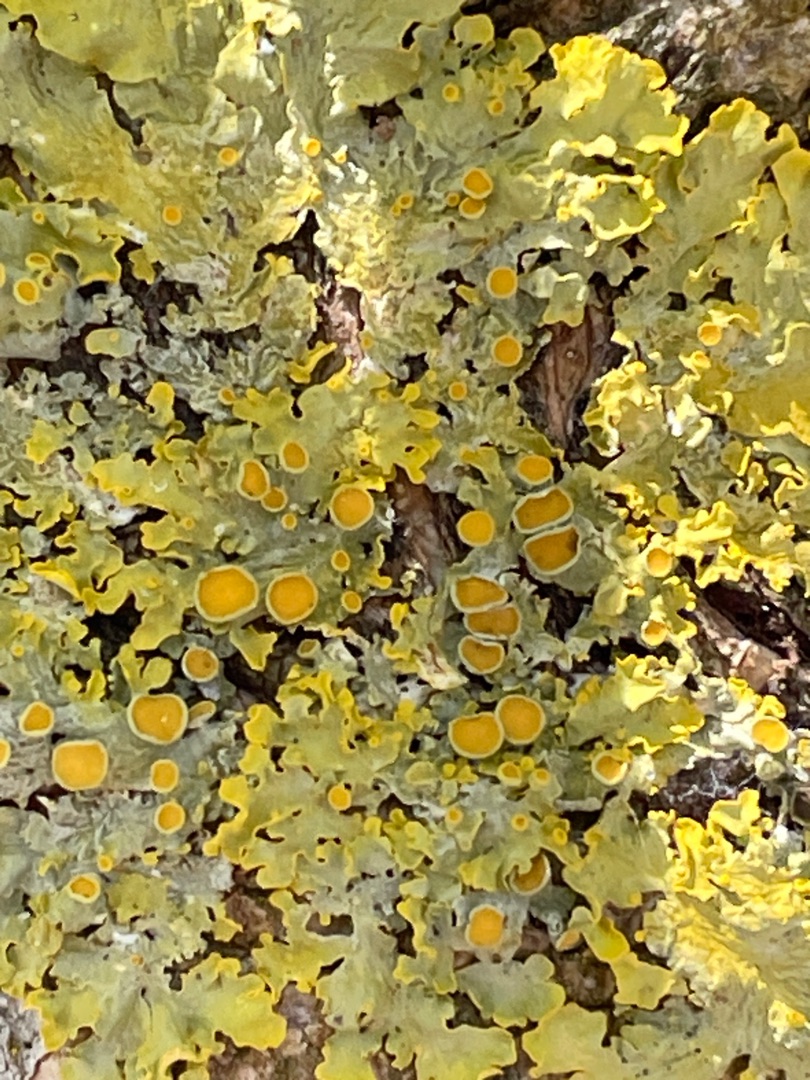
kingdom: Fungi
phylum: Ascomycota
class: Lecanoromycetes
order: Teloschistales
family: Teloschistaceae
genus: Xanthoria
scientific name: Xanthoria parietina
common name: Almindelig væggelav
